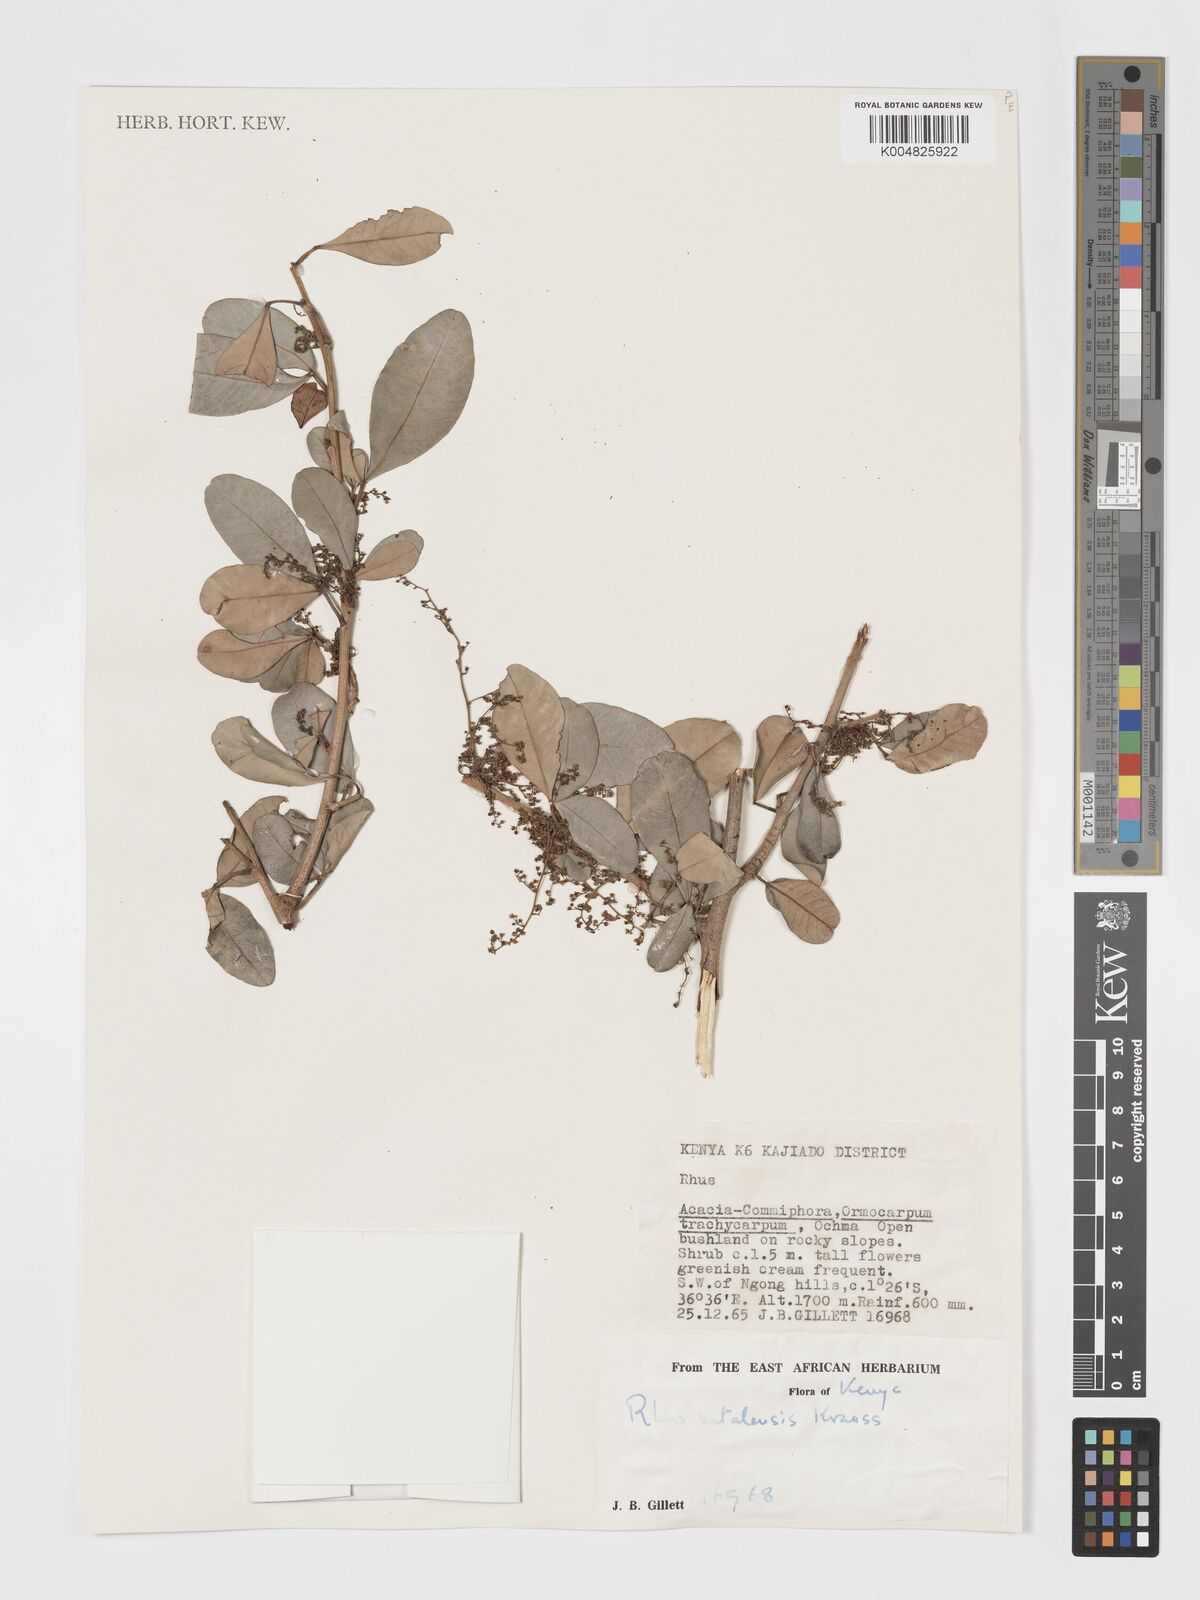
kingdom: Plantae
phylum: Tracheophyta
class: Magnoliopsida
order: Sapindales
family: Anacardiaceae
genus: Searsia
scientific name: Searsia natalensis
